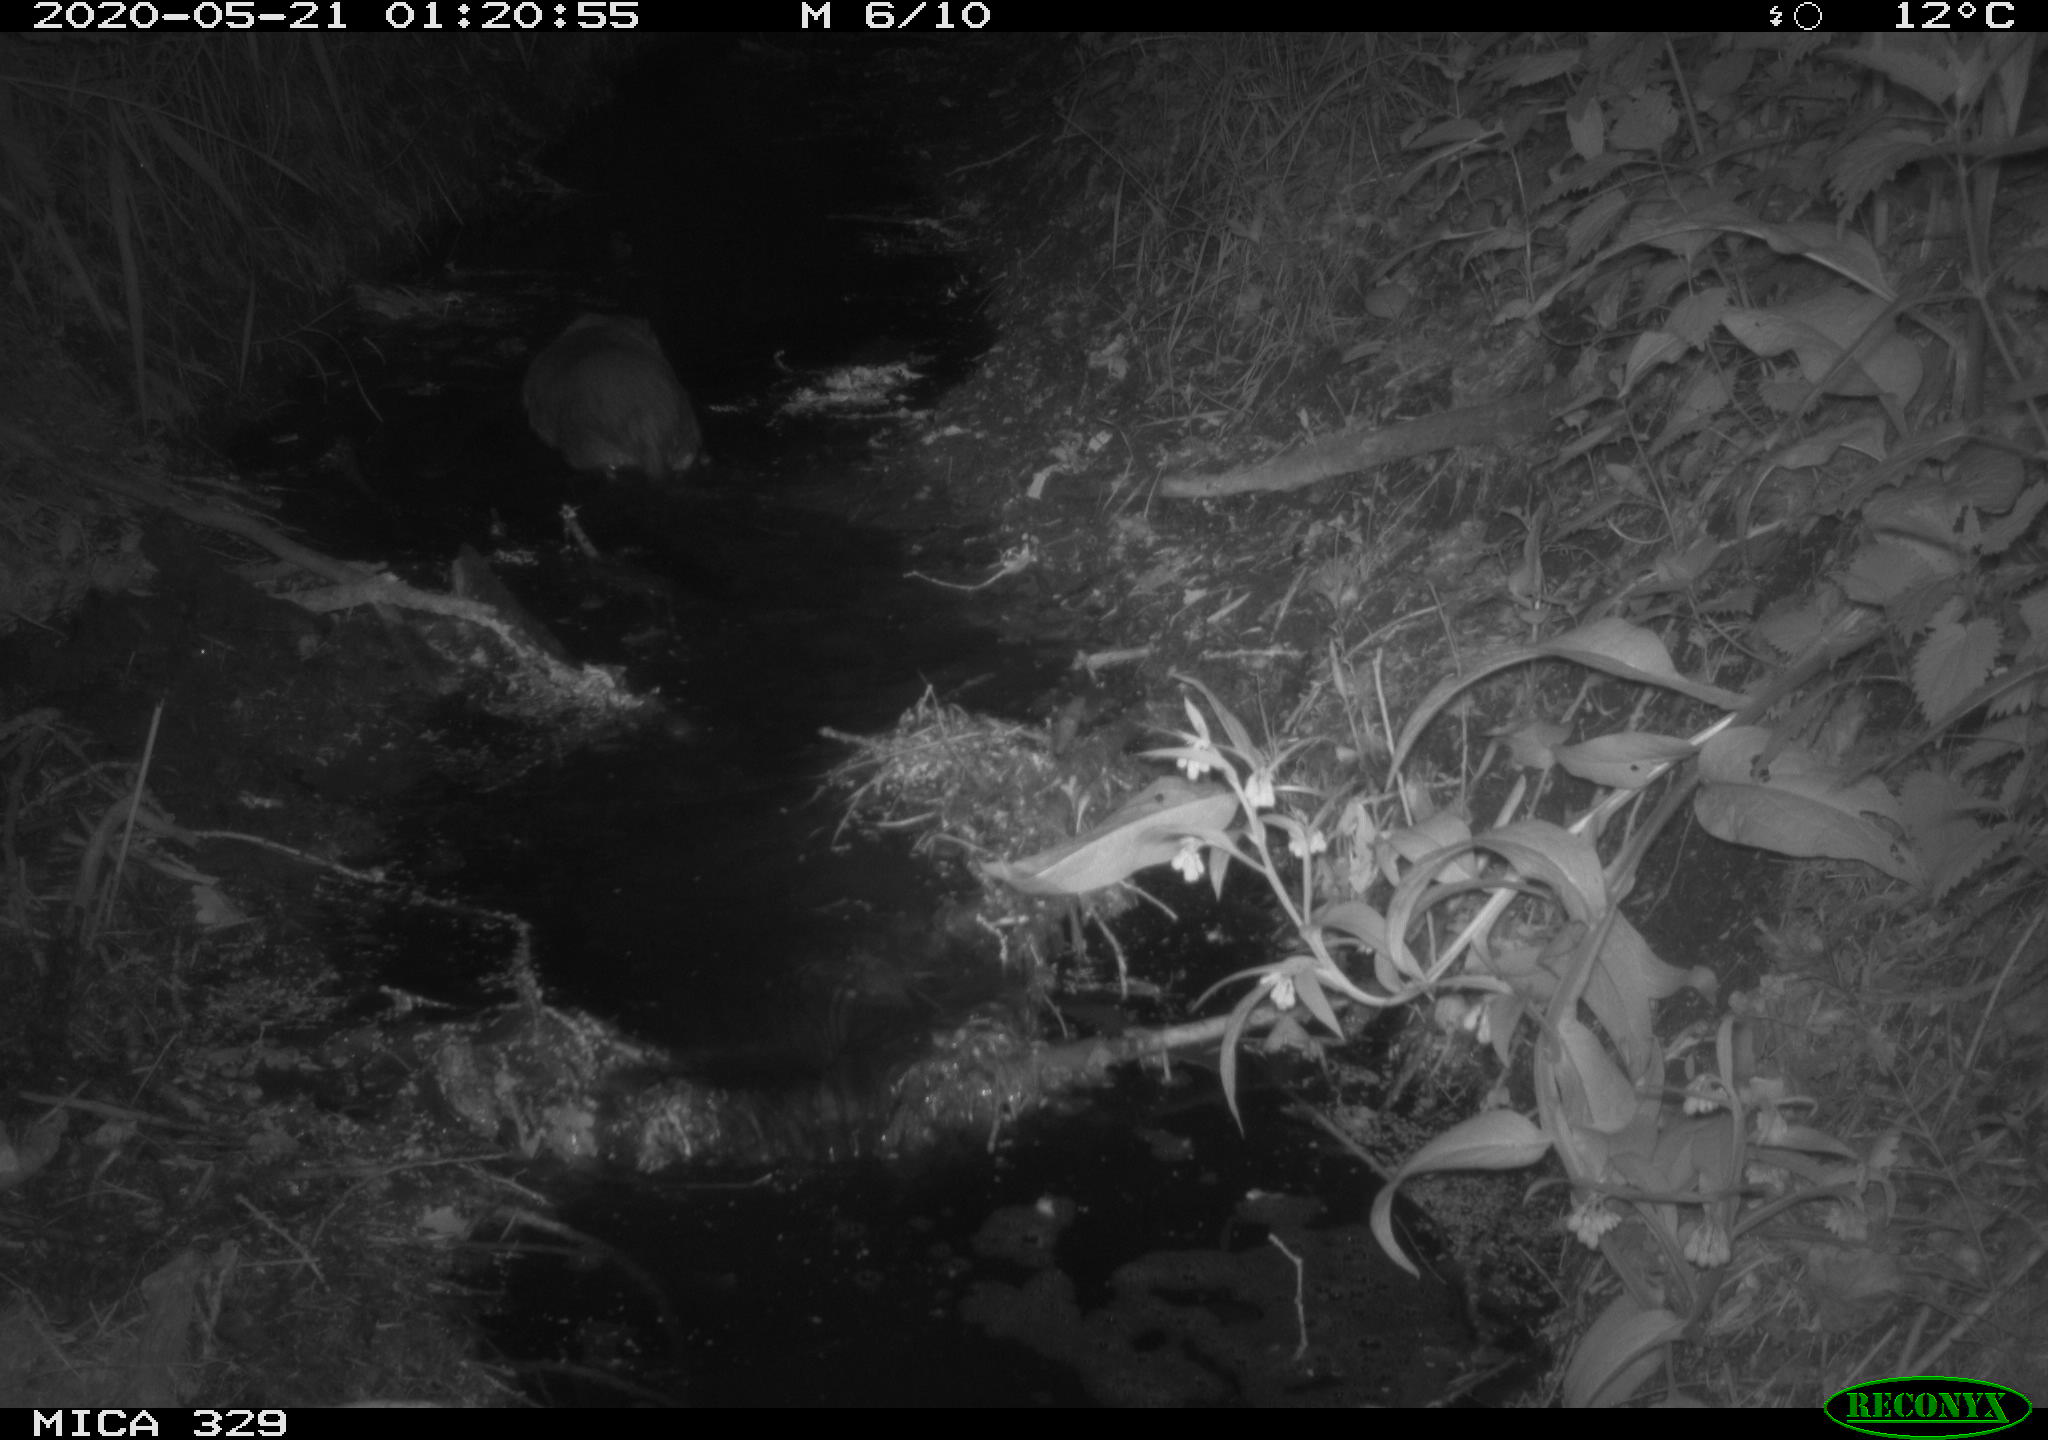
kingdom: Animalia
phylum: Chordata
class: Mammalia
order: Rodentia
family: Myocastoridae
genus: Myocastor
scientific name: Myocastor coypus
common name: Coypu
